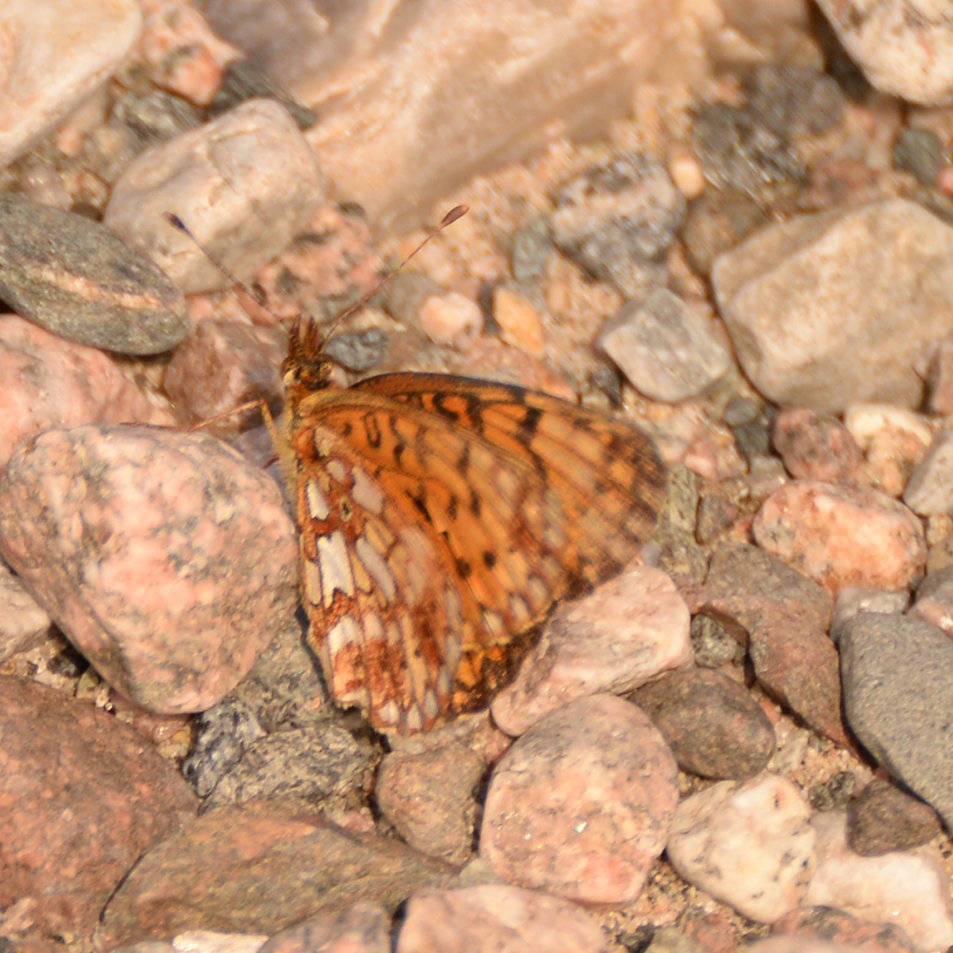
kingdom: Animalia
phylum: Arthropoda
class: Insecta
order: Lepidoptera
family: Nymphalidae
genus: Boloria
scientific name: Boloria selene
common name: Silver-bordered Fritillary
